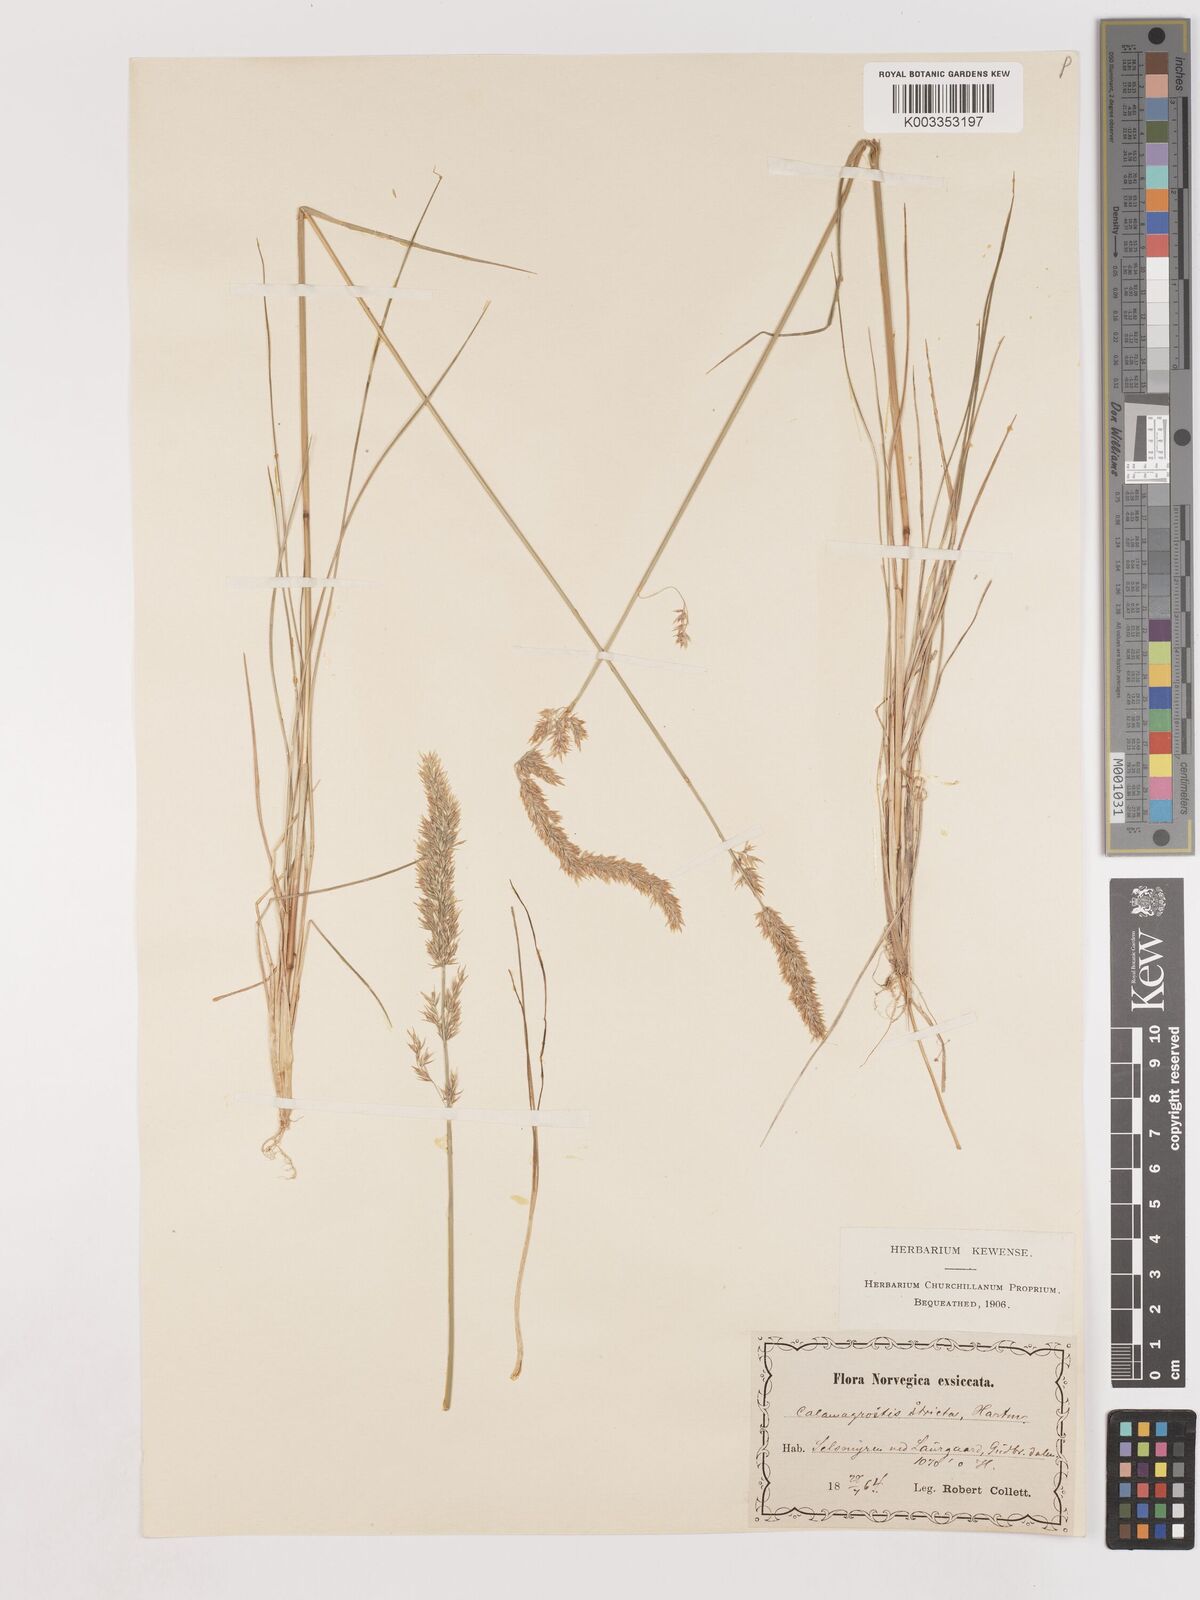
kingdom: Plantae
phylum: Tracheophyta
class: Liliopsida
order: Poales
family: Poaceae
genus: Cinnagrostis
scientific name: Cinnagrostis recta
